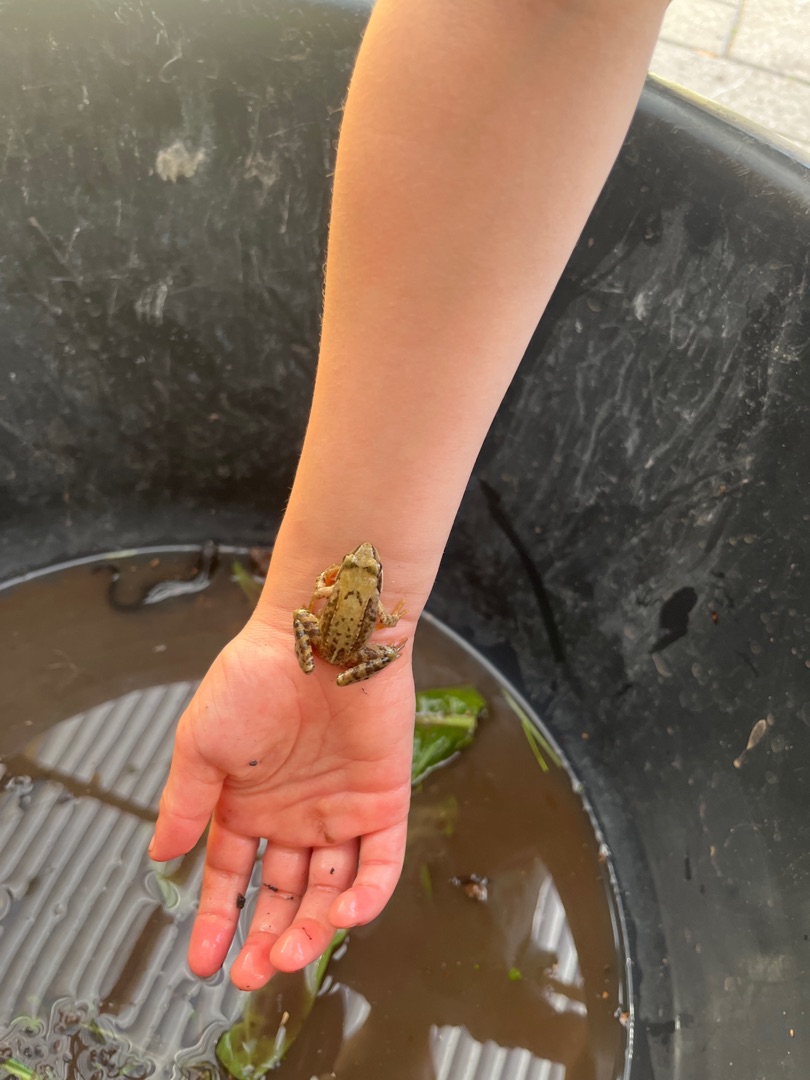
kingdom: Animalia
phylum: Chordata
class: Amphibia
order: Anura
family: Ranidae
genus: Rana
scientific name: Rana
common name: Rana
